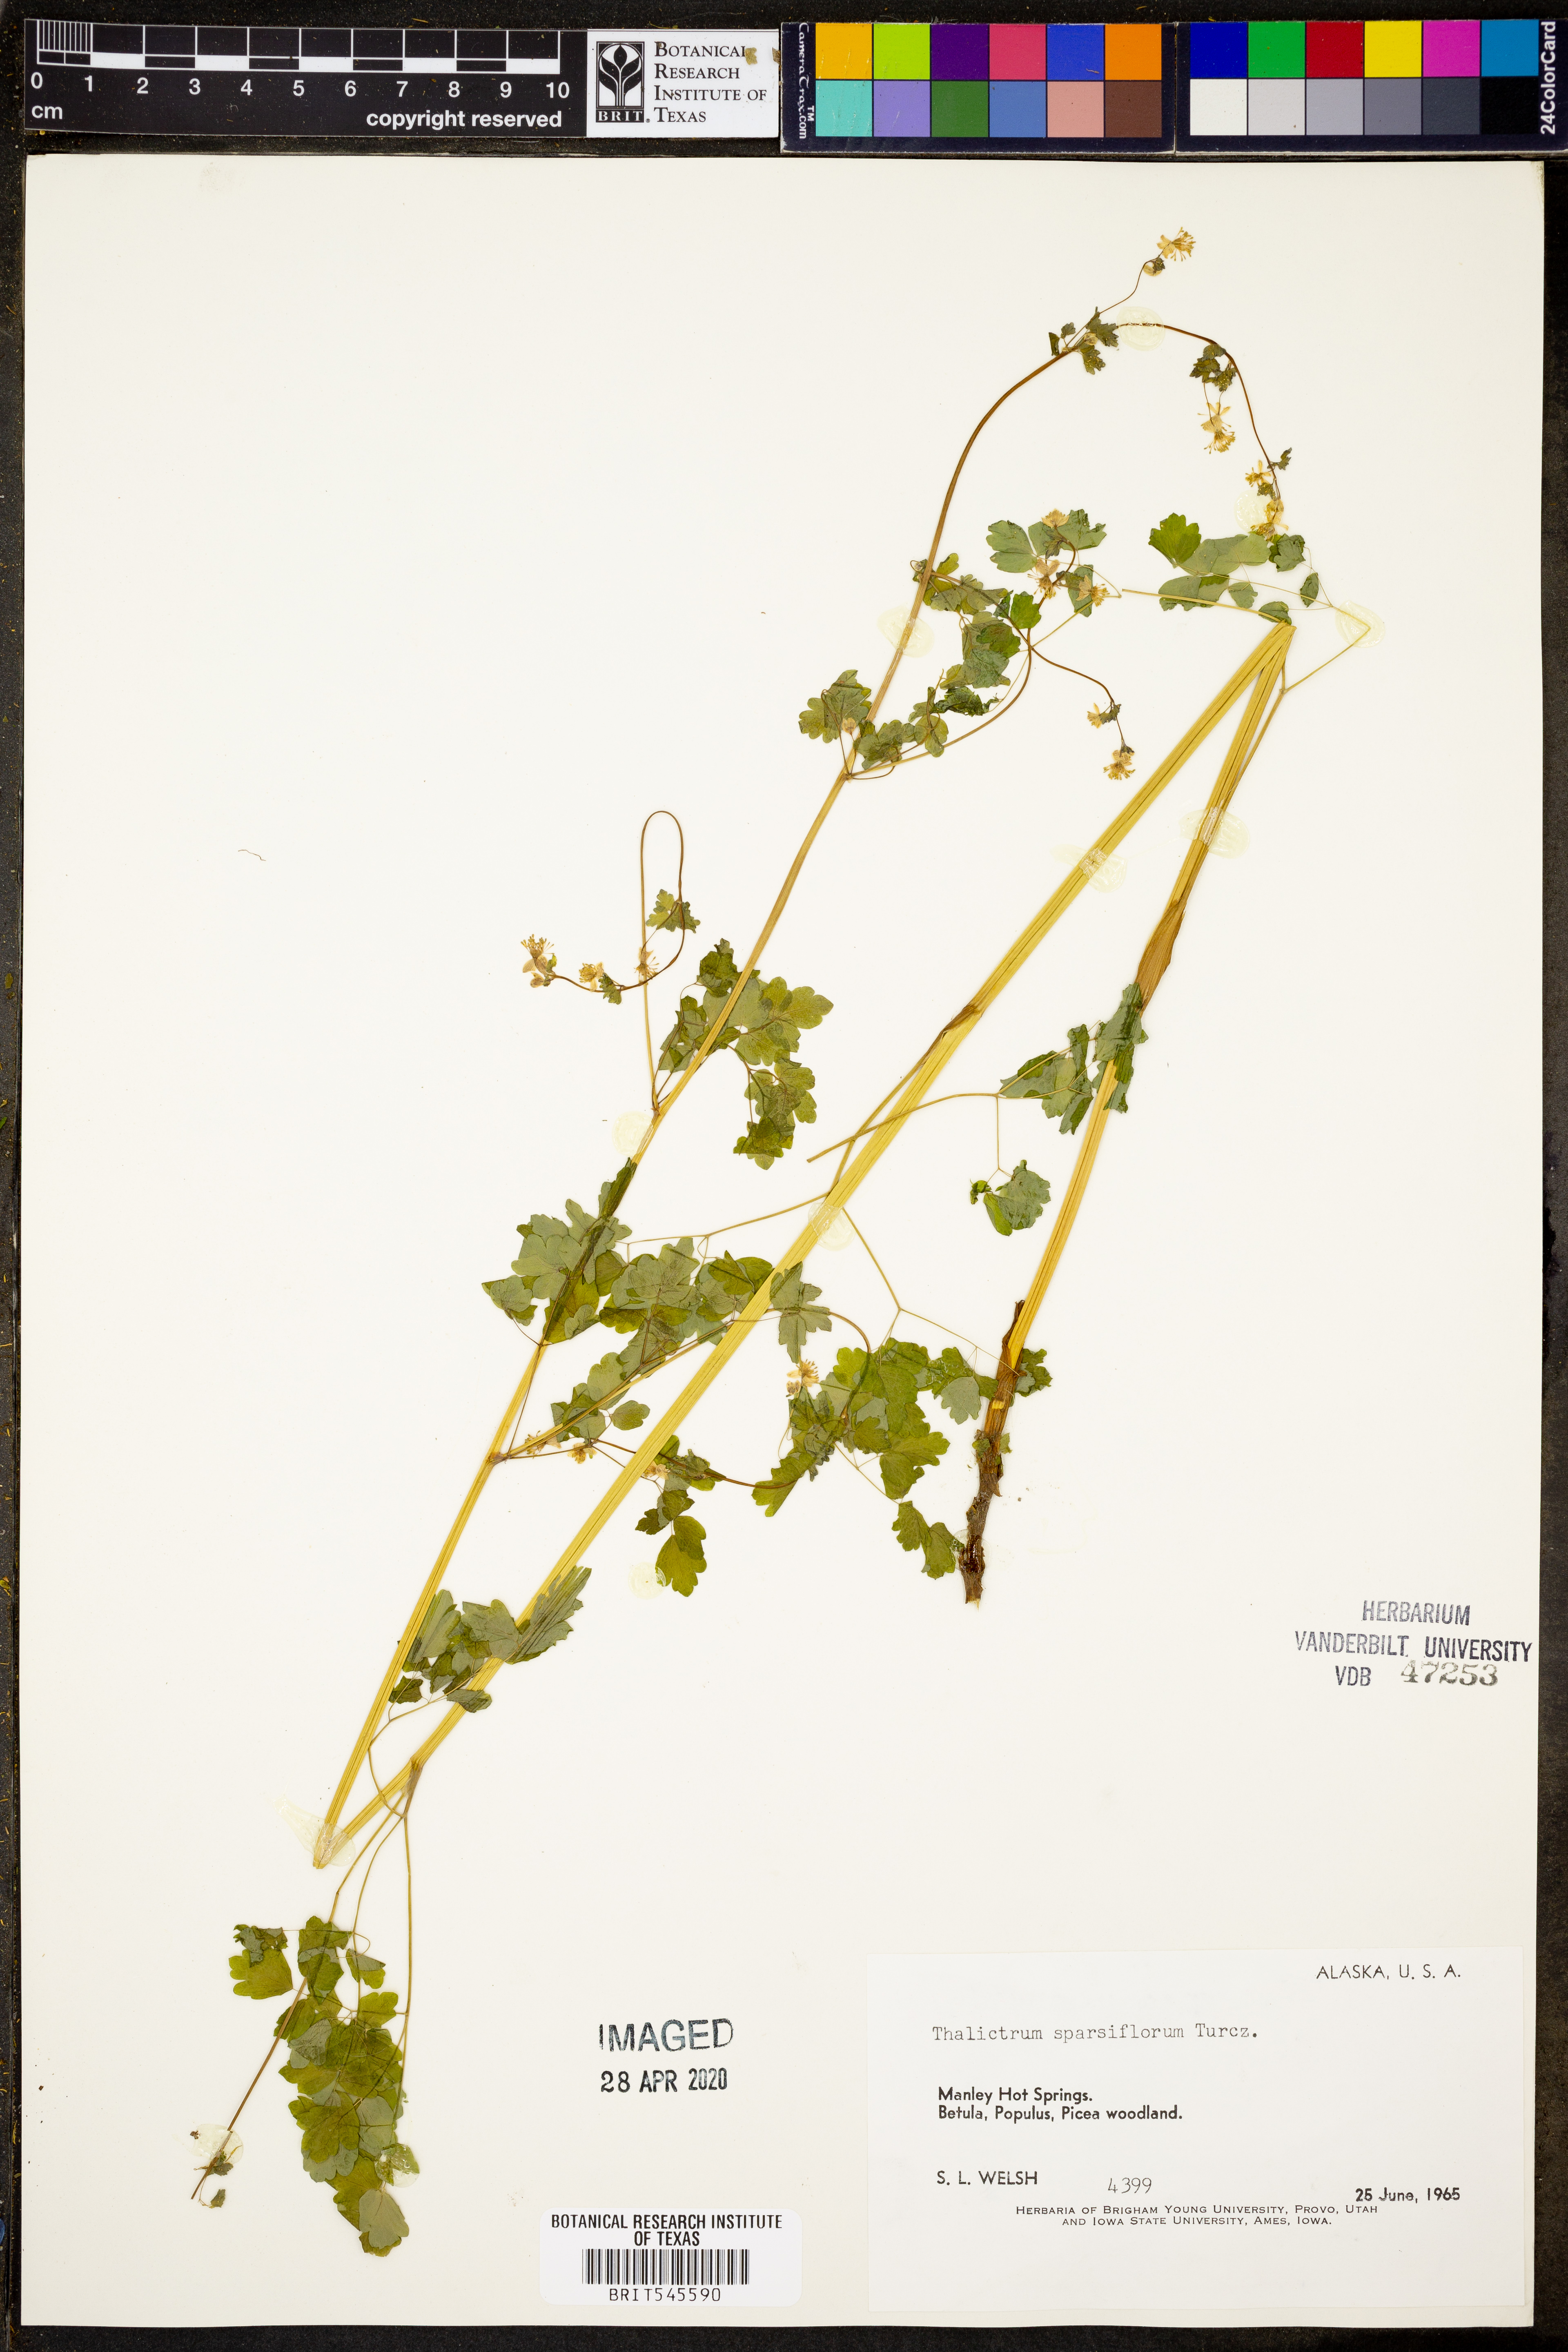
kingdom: Plantae
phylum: Tracheophyta
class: Magnoliopsida
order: Ranunculales
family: Ranunculaceae
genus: Thalictrum
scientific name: Thalictrum sparsiflorum
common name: Mountain meadow-rue
